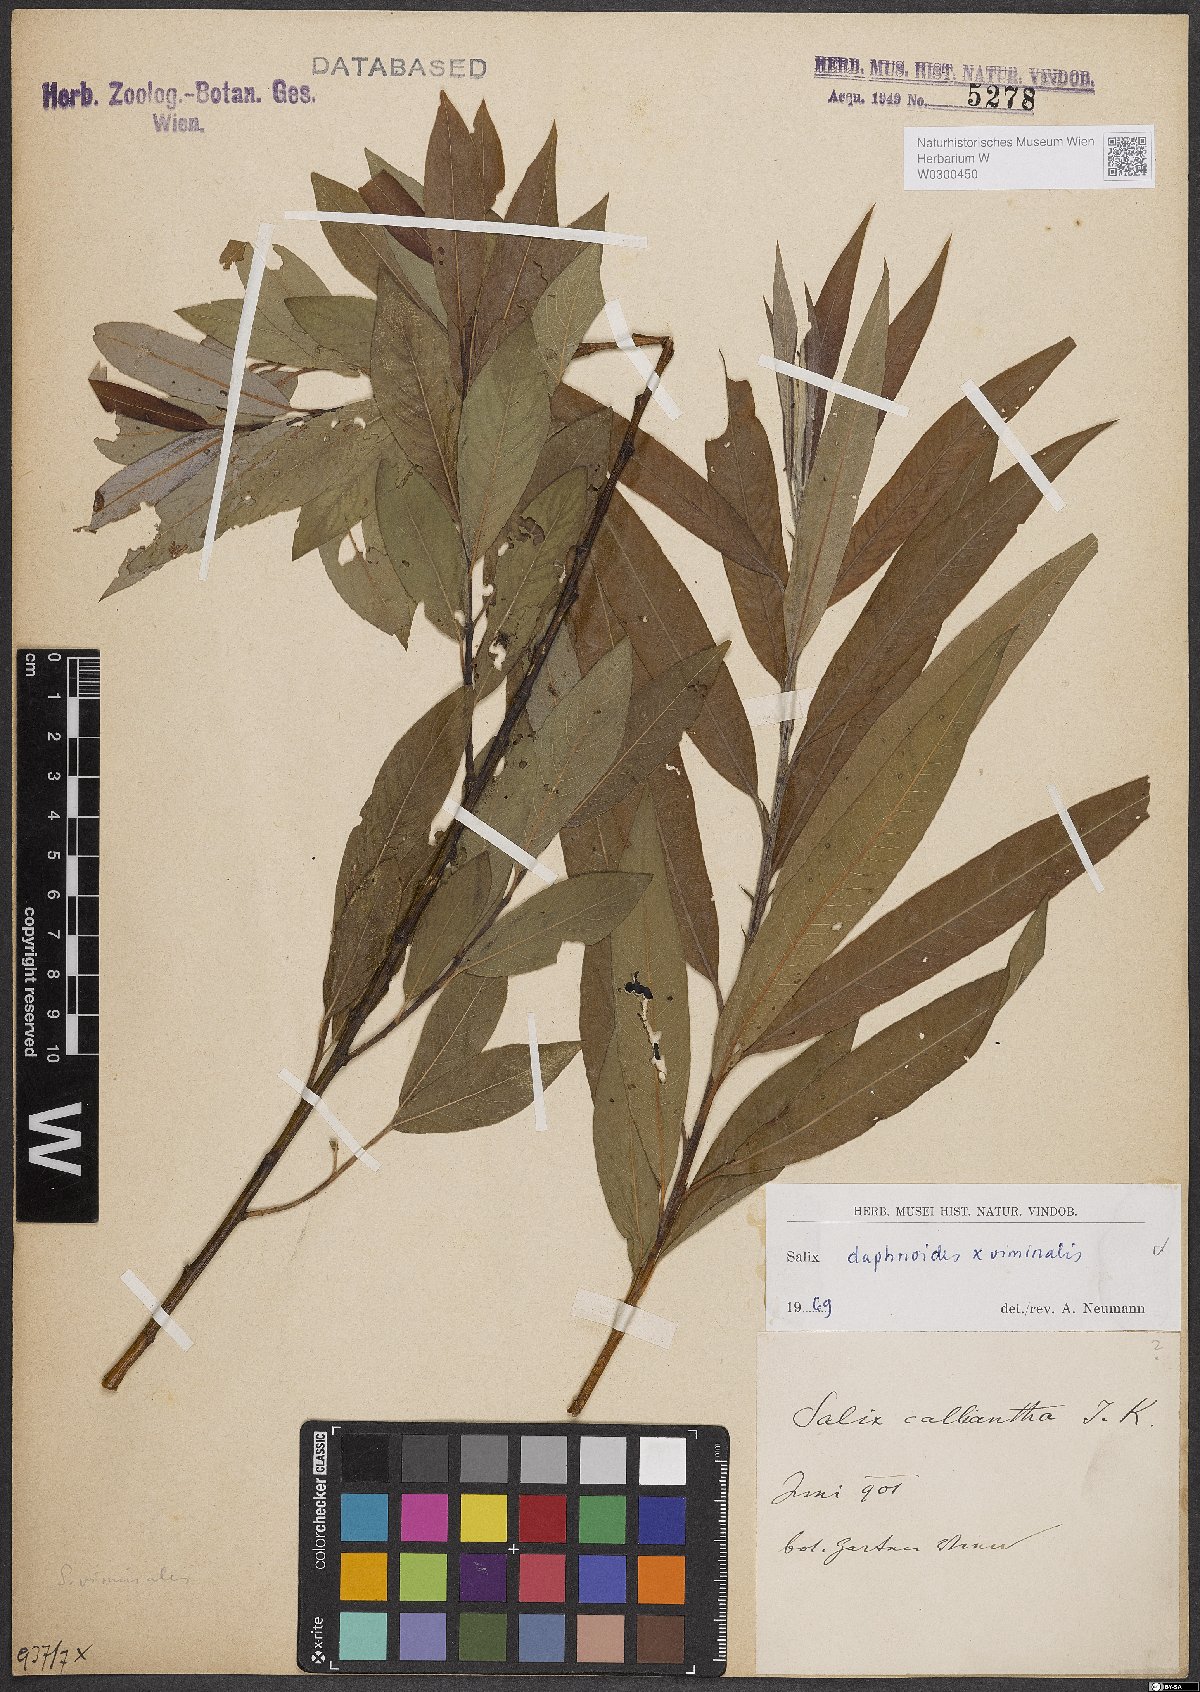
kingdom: Plantae
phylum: Tracheophyta
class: Magnoliopsida
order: Malpighiales
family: Salicaceae
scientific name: Salicaceae
